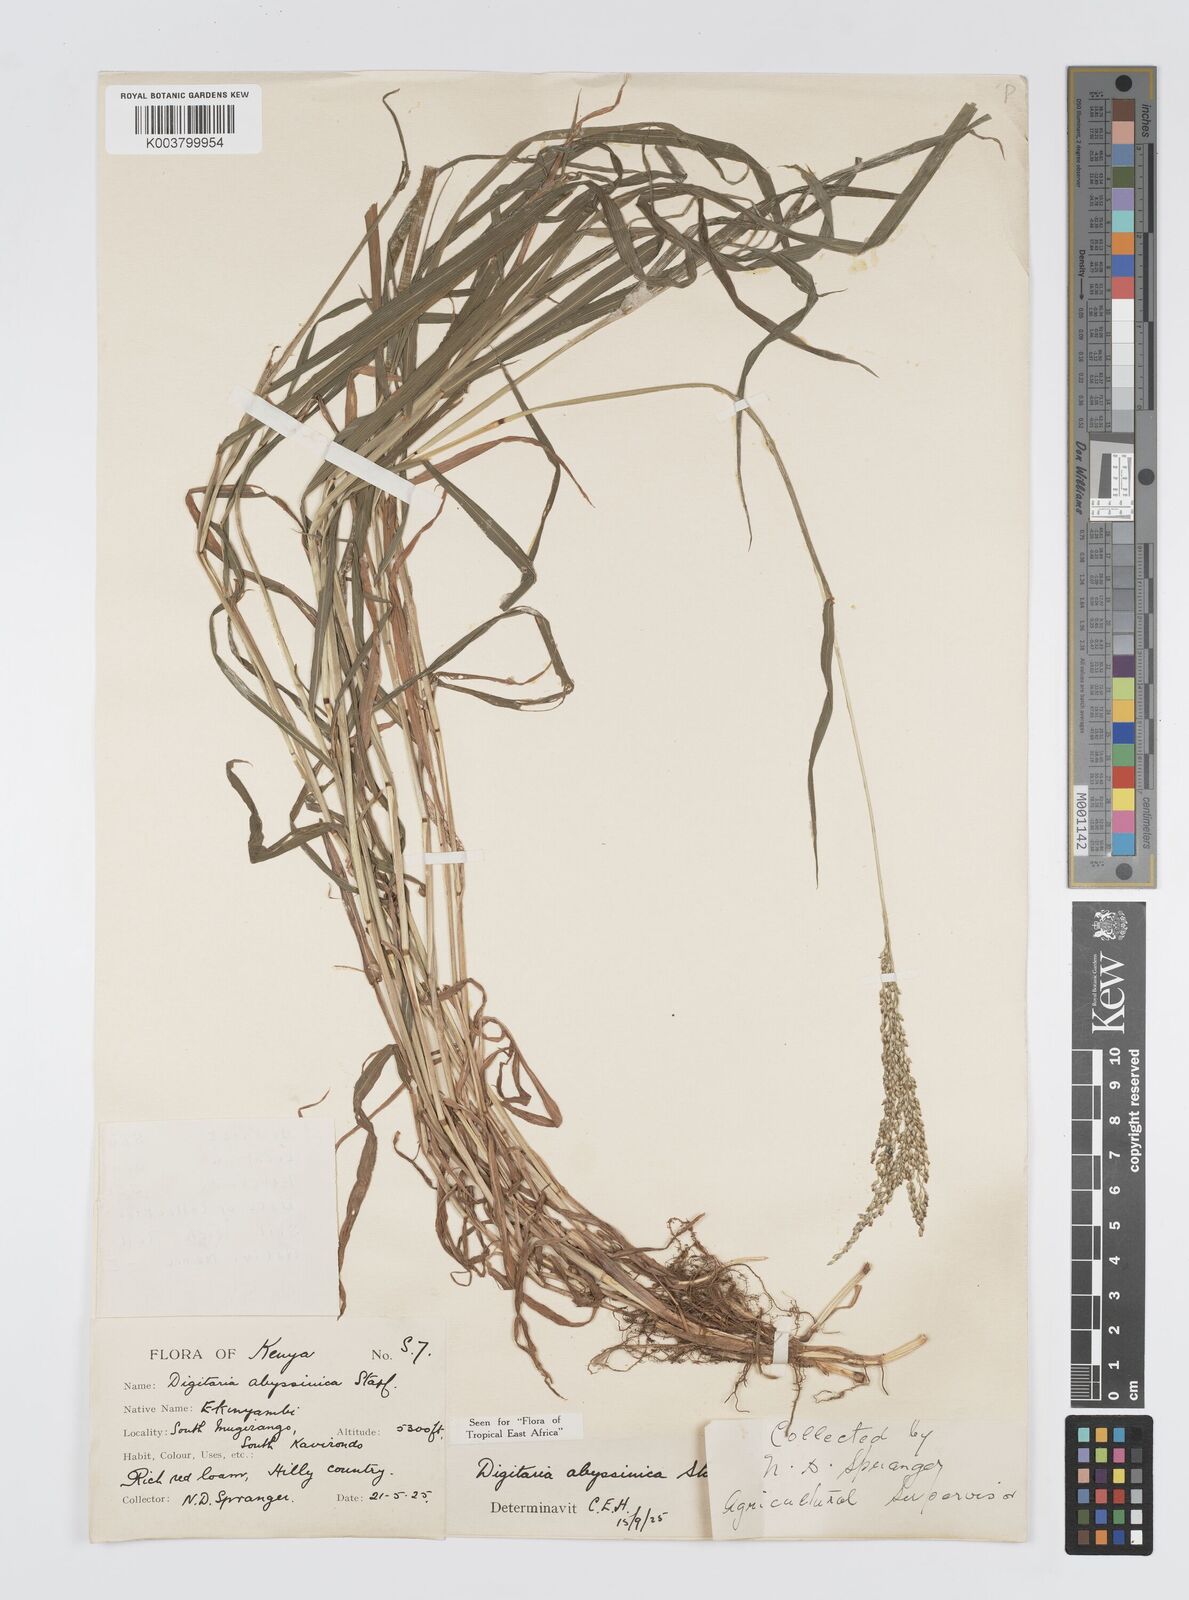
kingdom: Plantae
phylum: Tracheophyta
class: Liliopsida
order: Poales
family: Poaceae
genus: Digitaria
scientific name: Digitaria abyssinica
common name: African couchgrass
